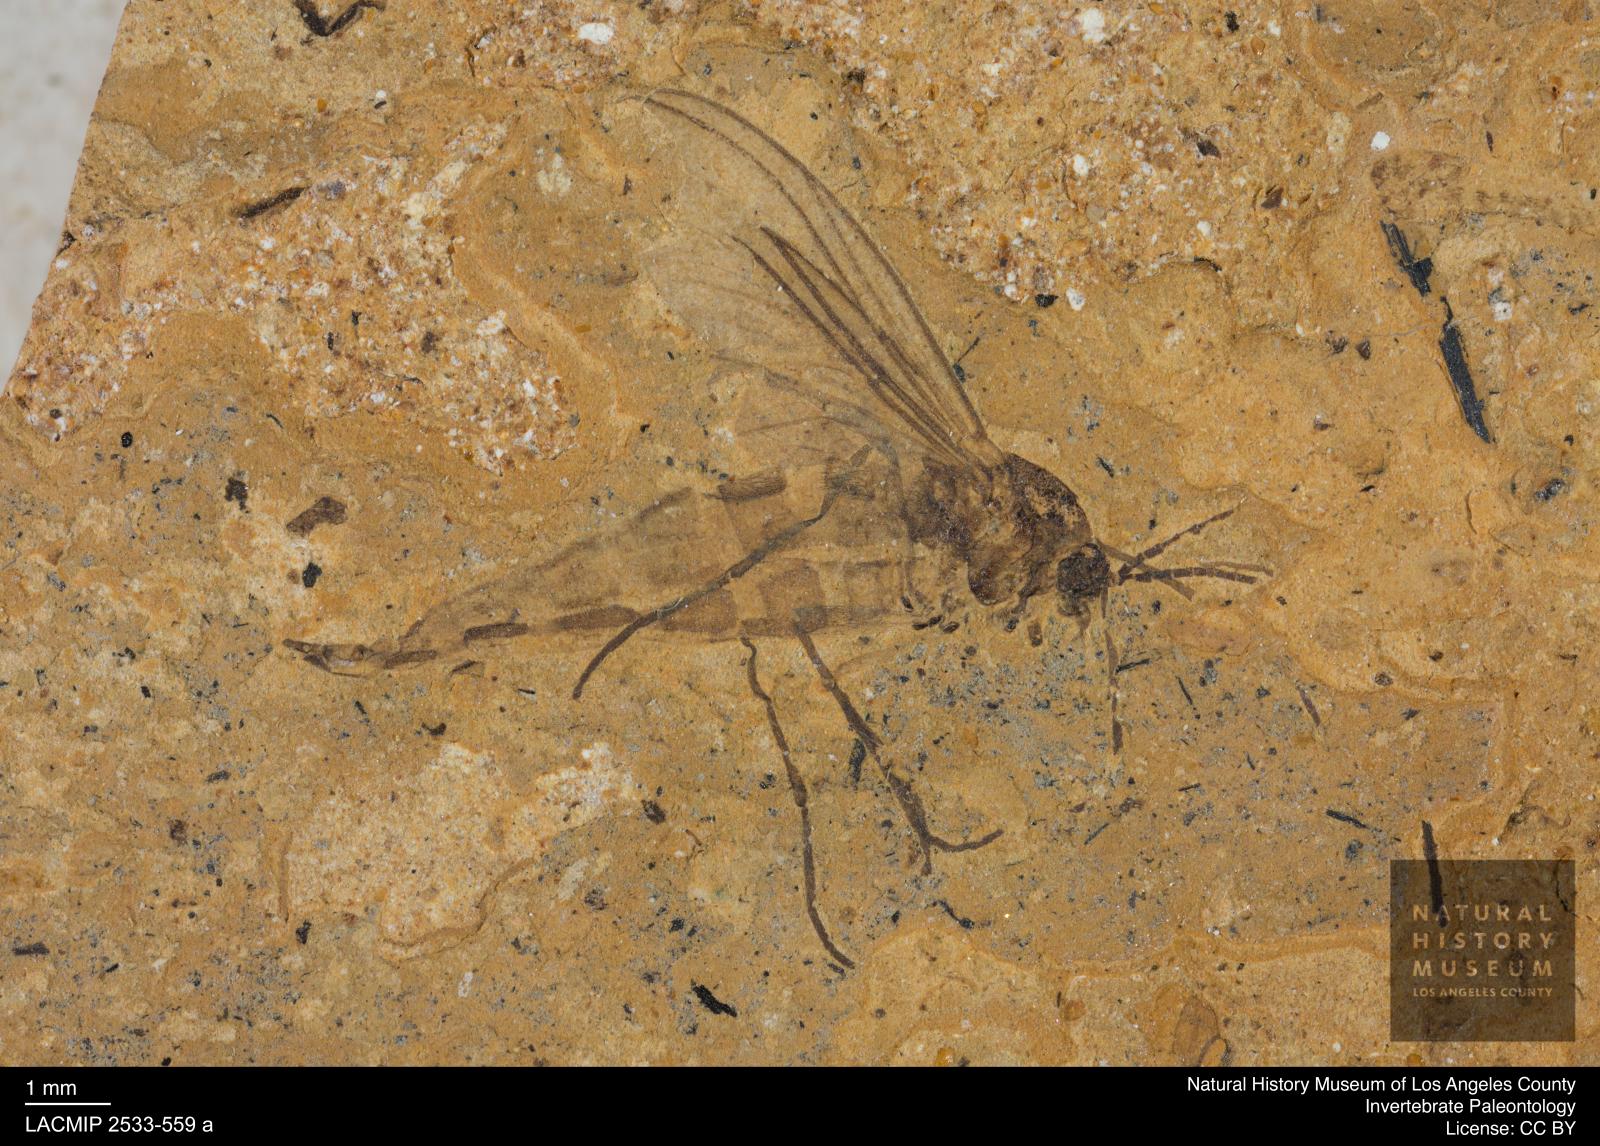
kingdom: Animalia
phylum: Arthropoda
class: Insecta
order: Diptera
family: Sciaridae
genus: Sciara
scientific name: Sciara aulica
